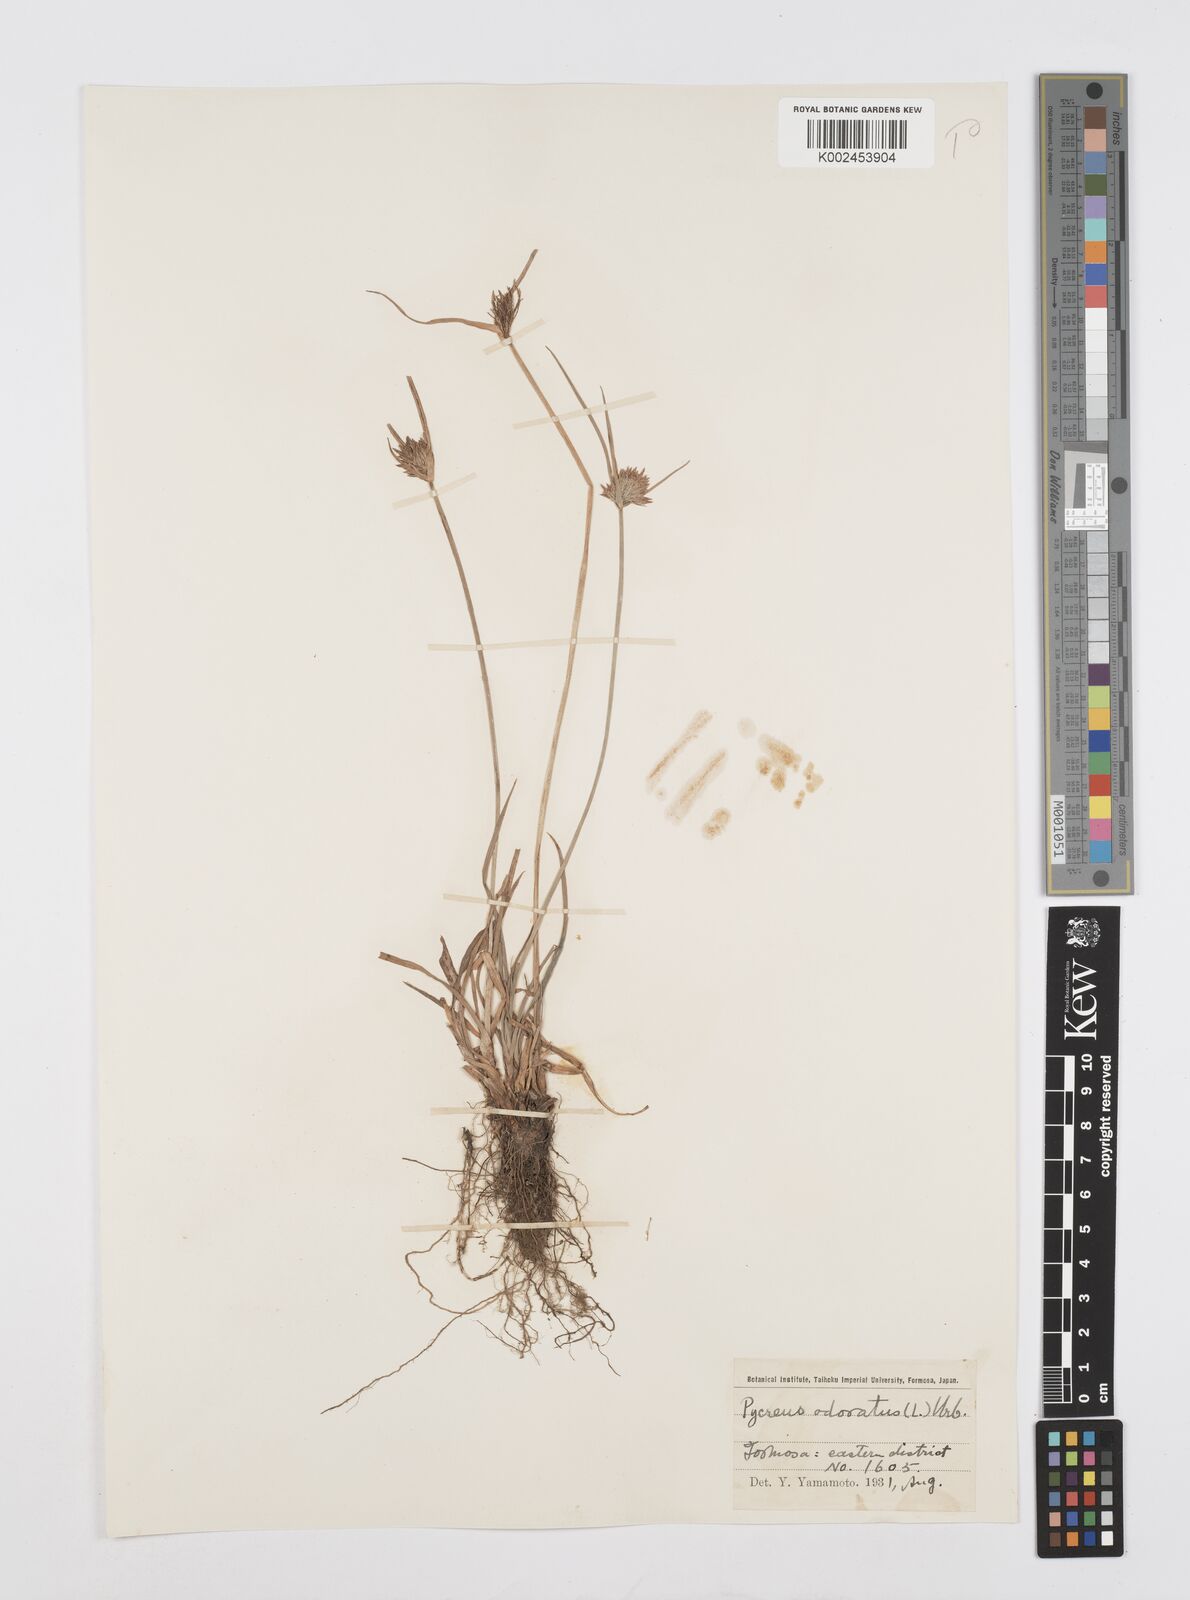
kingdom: Plantae
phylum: Tracheophyta
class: Liliopsida
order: Poales
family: Cyperaceae
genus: Cyperus
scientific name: Cyperus polystachyos
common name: Bunchy flat sedge
